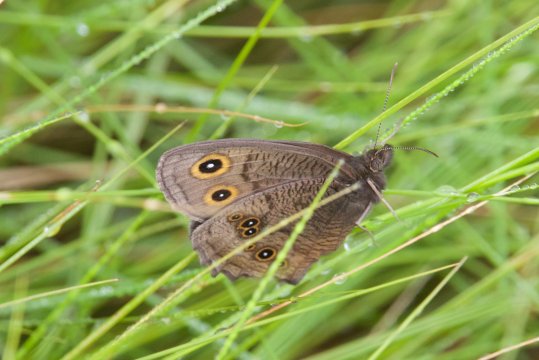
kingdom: Animalia
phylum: Arthropoda
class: Insecta
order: Lepidoptera
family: Nymphalidae
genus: Cercyonis
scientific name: Cercyonis pegala
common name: Common Wood-Nymph
